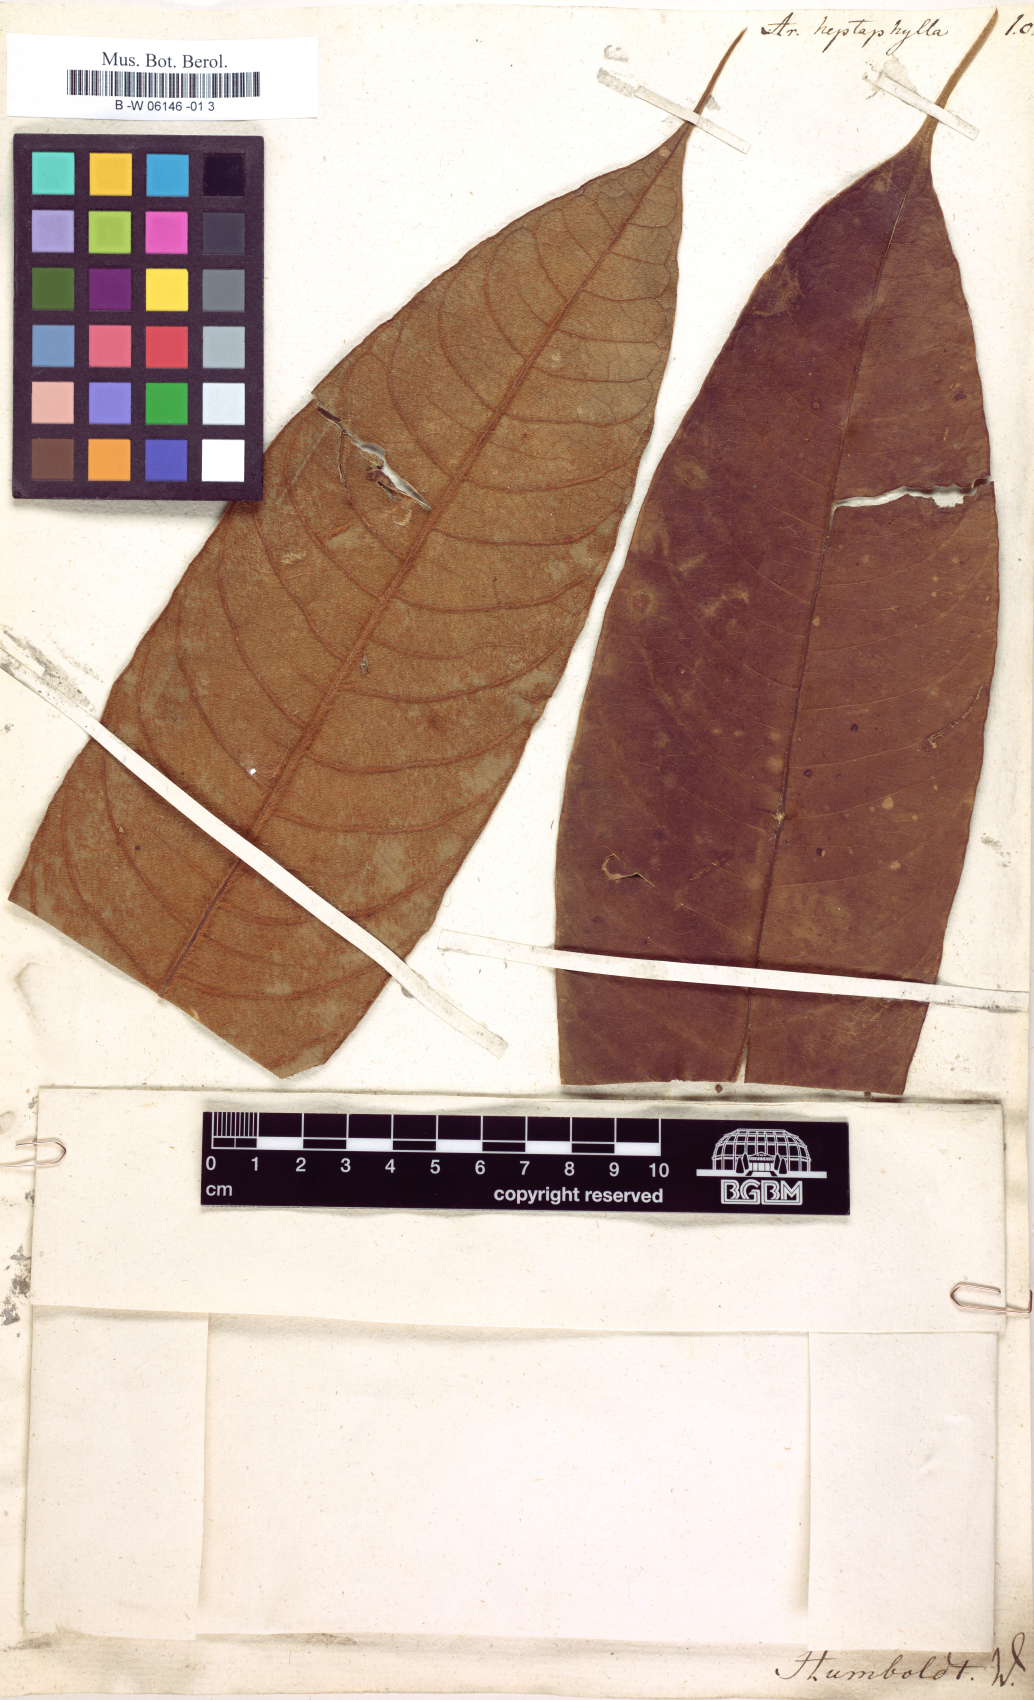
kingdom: Plantae
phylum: Tracheophyta
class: Magnoliopsida
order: Apiales
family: Araliaceae
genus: Heptapleurum
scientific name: Heptapleurum heptaphyllum
